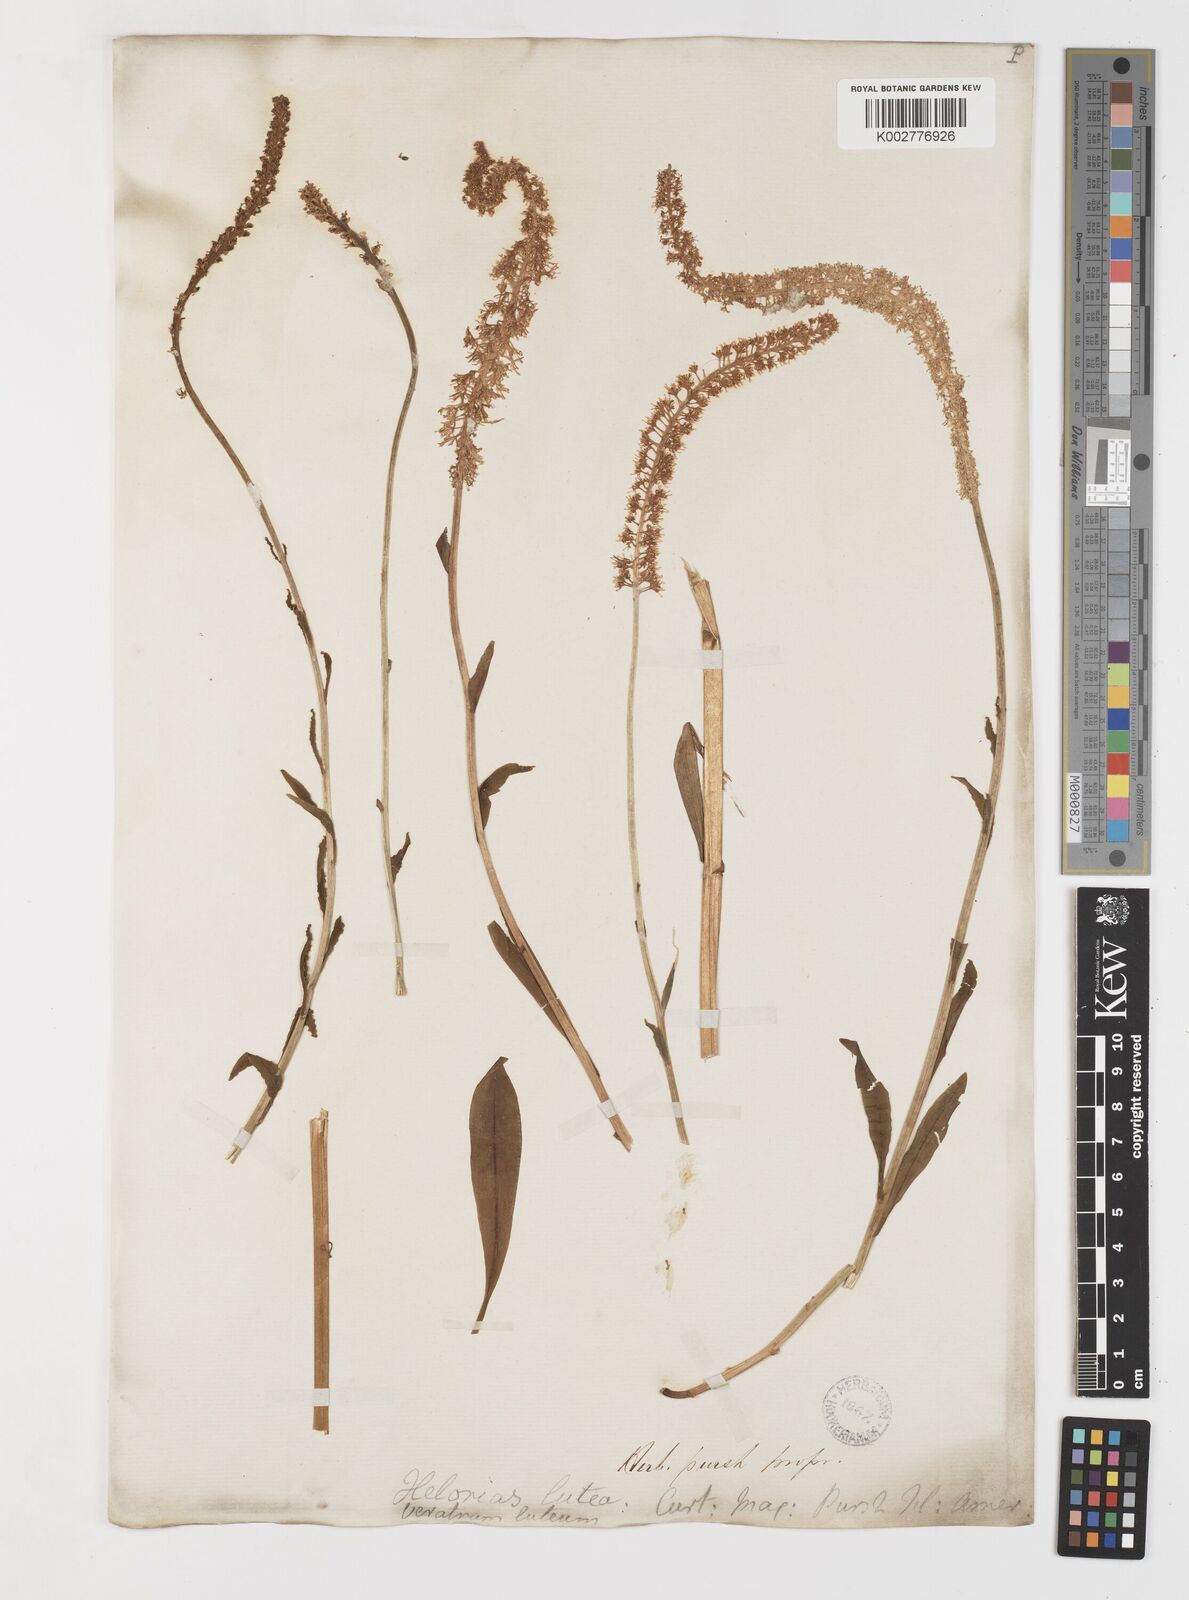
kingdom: Plantae
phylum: Tracheophyta
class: Liliopsida
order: Liliales
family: Melanthiaceae
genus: Chamaelirium
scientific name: Chamaelirium luteum
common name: Fairy-wand
